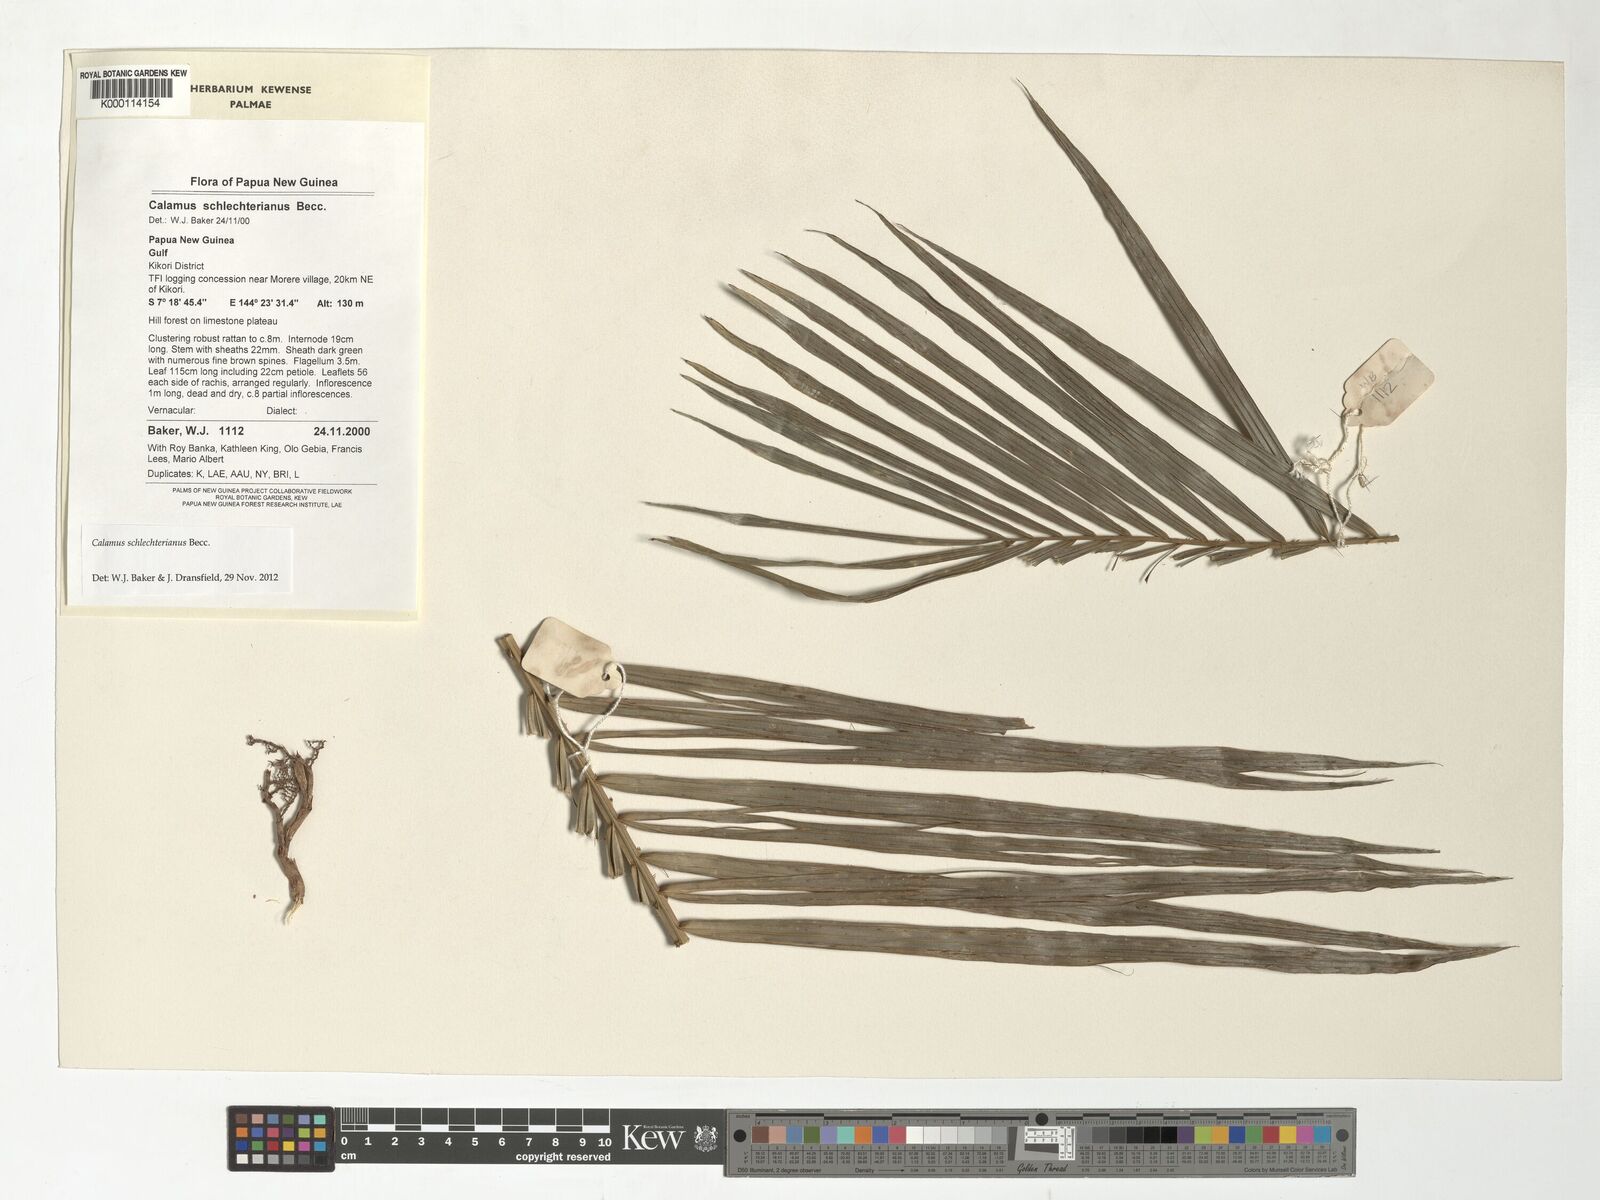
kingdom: Plantae
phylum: Tracheophyta
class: Liliopsida
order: Arecales
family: Arecaceae
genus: Calamus
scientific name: Calamus schlechterianus
